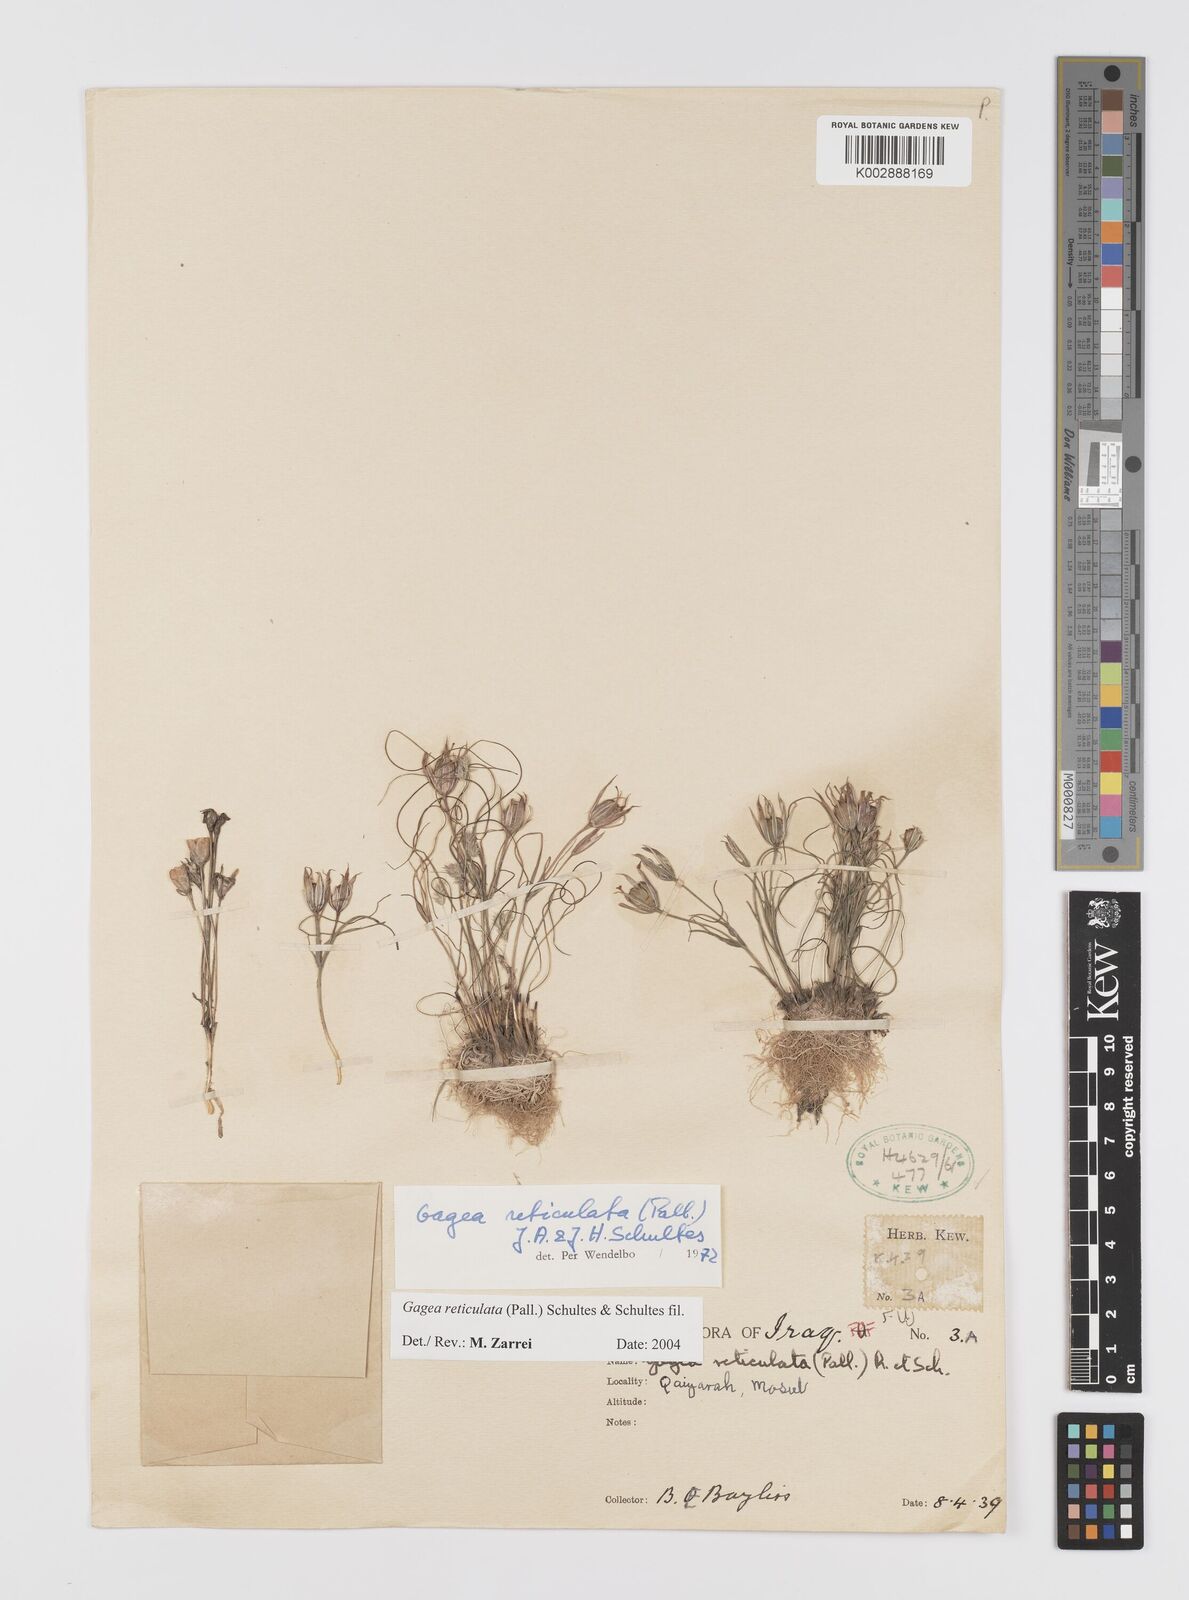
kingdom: Plantae
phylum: Tracheophyta
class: Liliopsida
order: Liliales
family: Liliaceae
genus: Gagea
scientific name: Gagea reticulata
